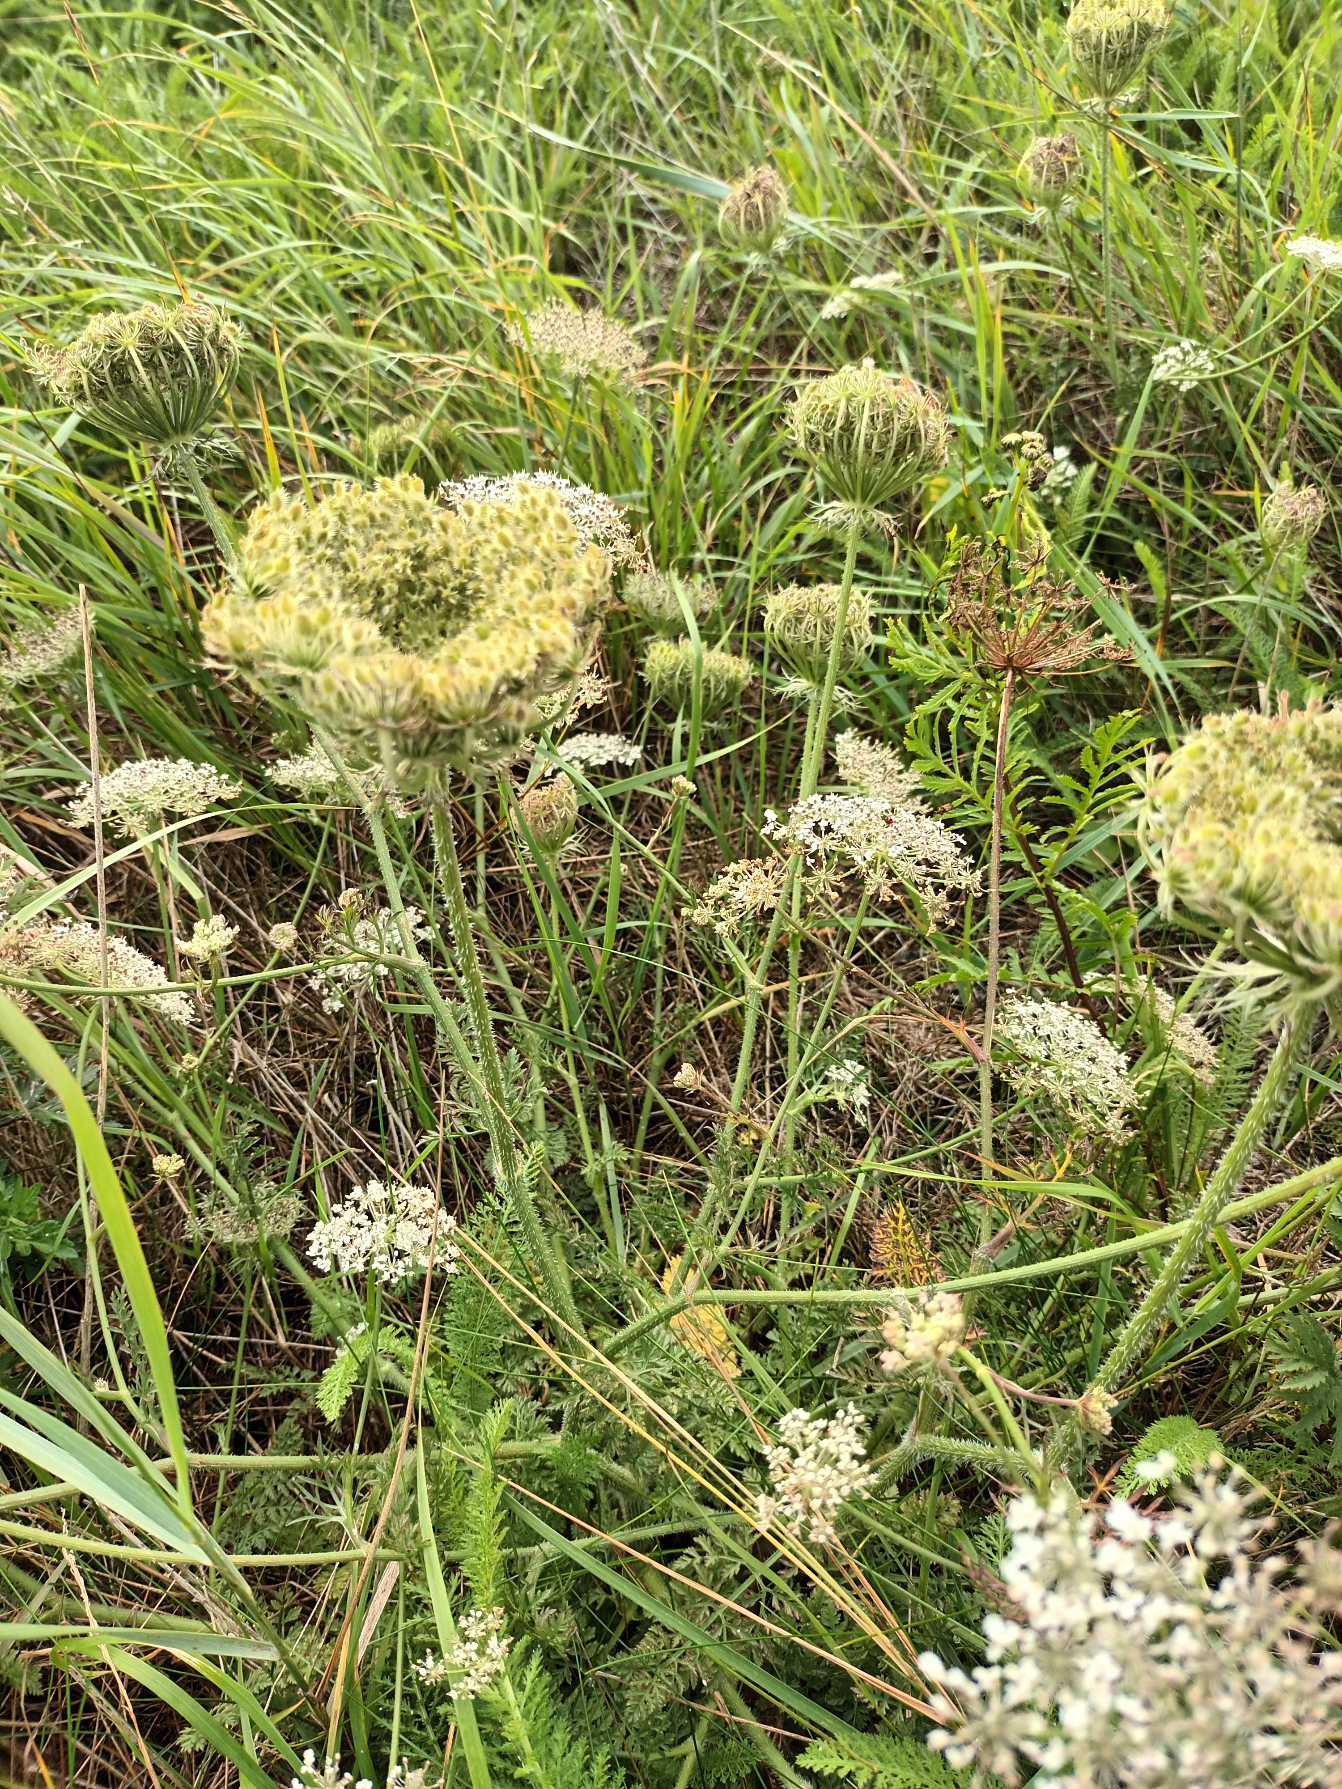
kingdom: Plantae
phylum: Tracheophyta
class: Magnoliopsida
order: Apiales
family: Apiaceae
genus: Daucus
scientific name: Daucus carota
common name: Gulerod
